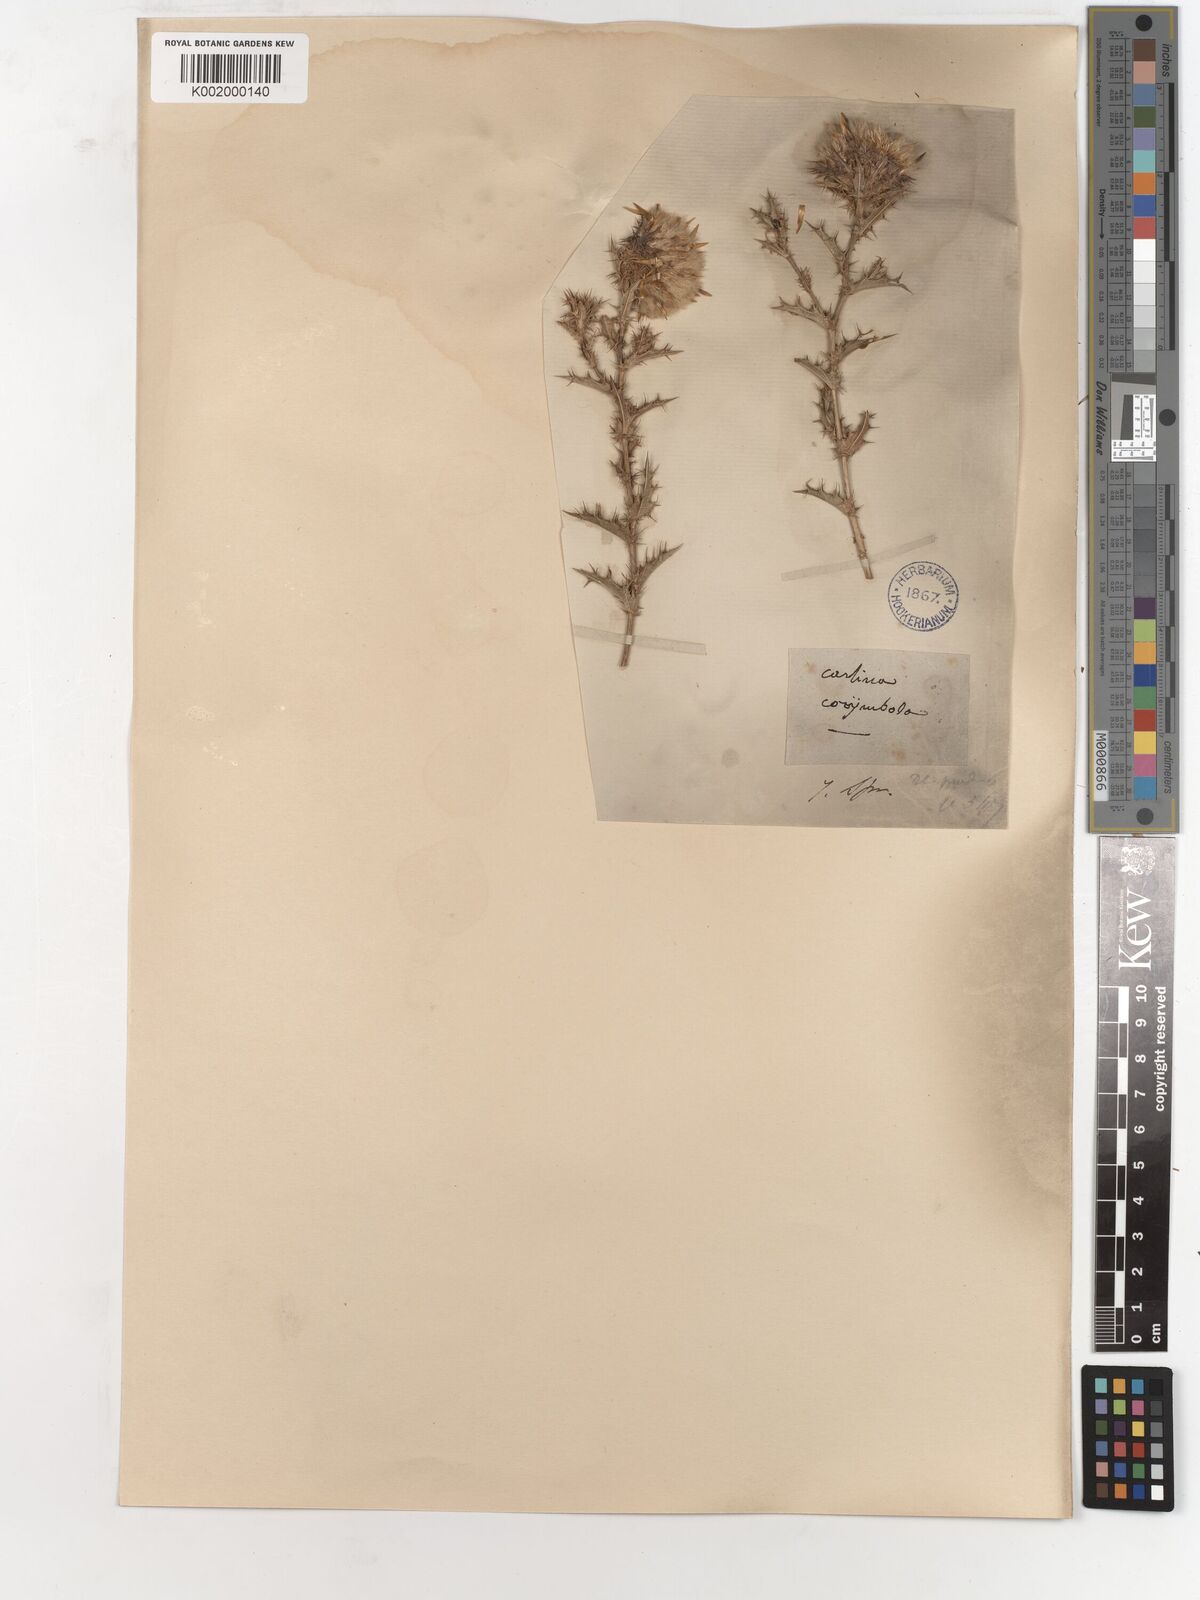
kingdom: Plantae
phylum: Tracheophyta
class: Magnoliopsida
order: Asterales
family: Asteraceae
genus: Carlina
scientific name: Carlina corymbosa
